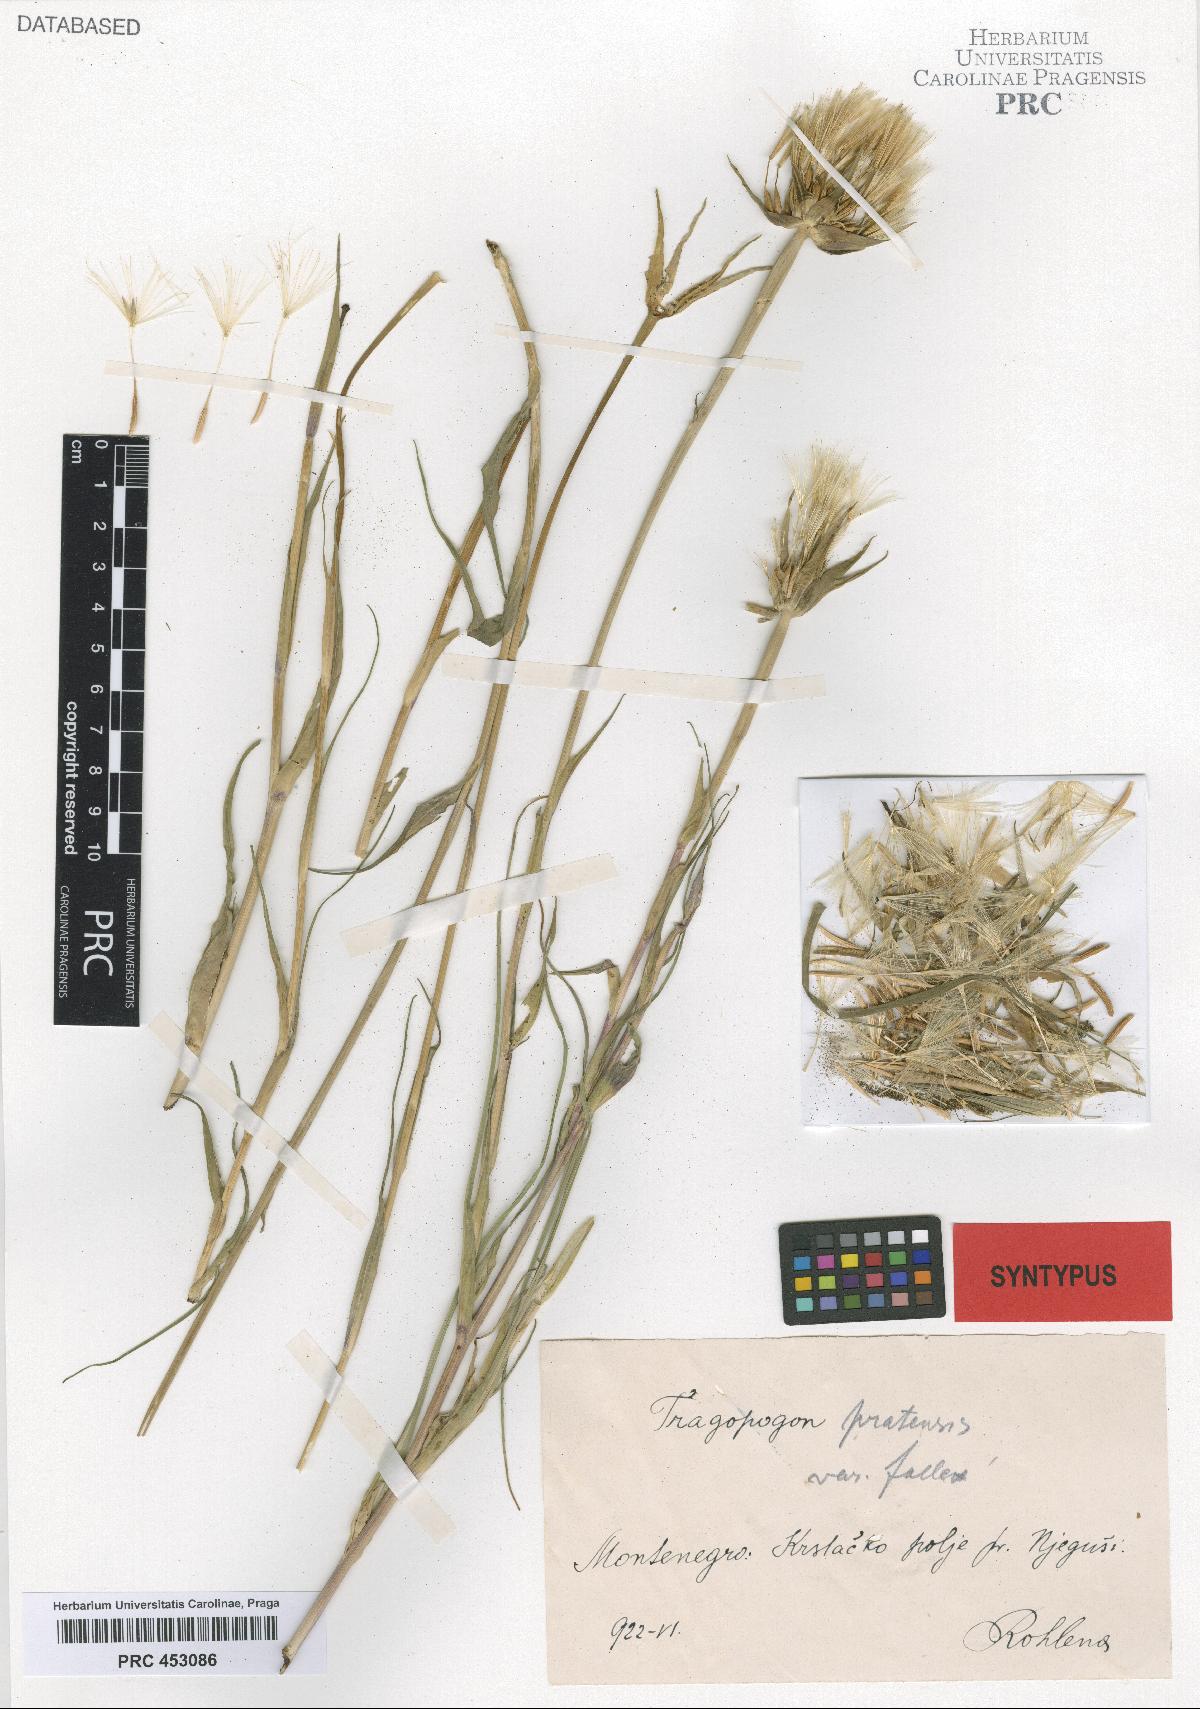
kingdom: Plantae
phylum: Tracheophyta
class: Magnoliopsida
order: Asterales
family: Asteraceae
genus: Tragopogon
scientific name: Tragopogon pratensis
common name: Goat's-beard
